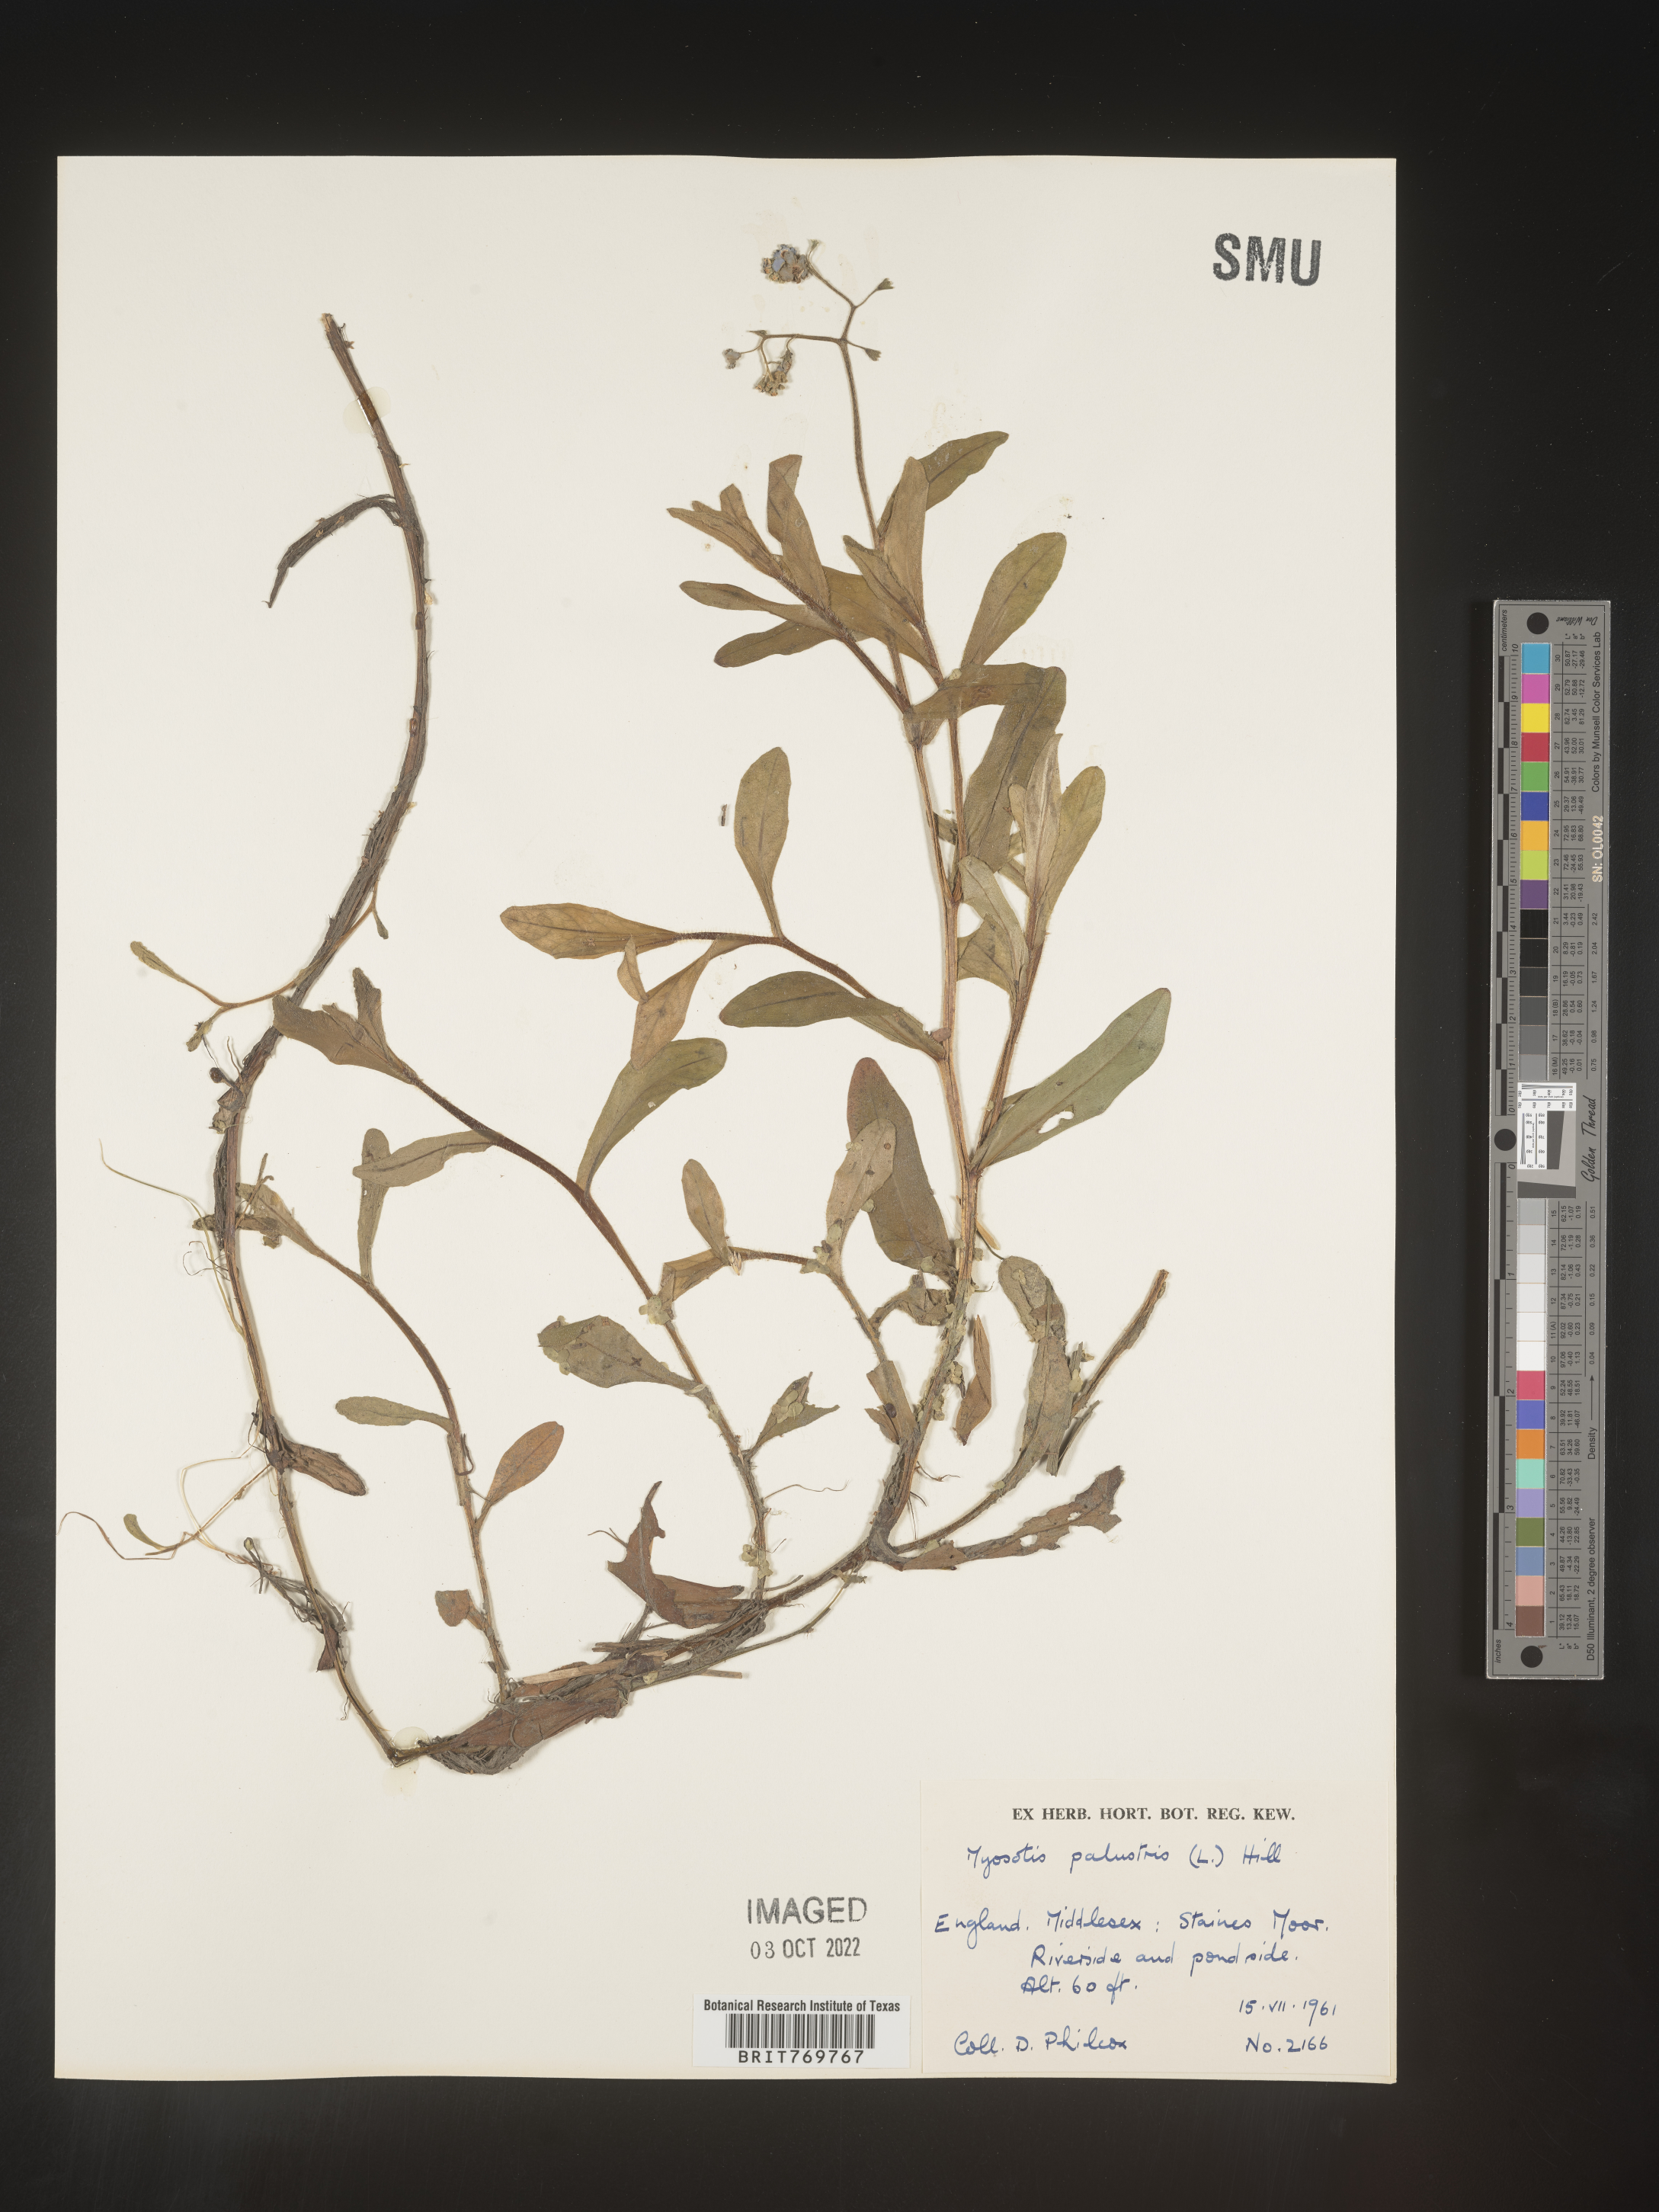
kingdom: Plantae
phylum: Tracheophyta
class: Magnoliopsida
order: Boraginales
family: Boraginaceae
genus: Myosotis
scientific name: Myosotis
